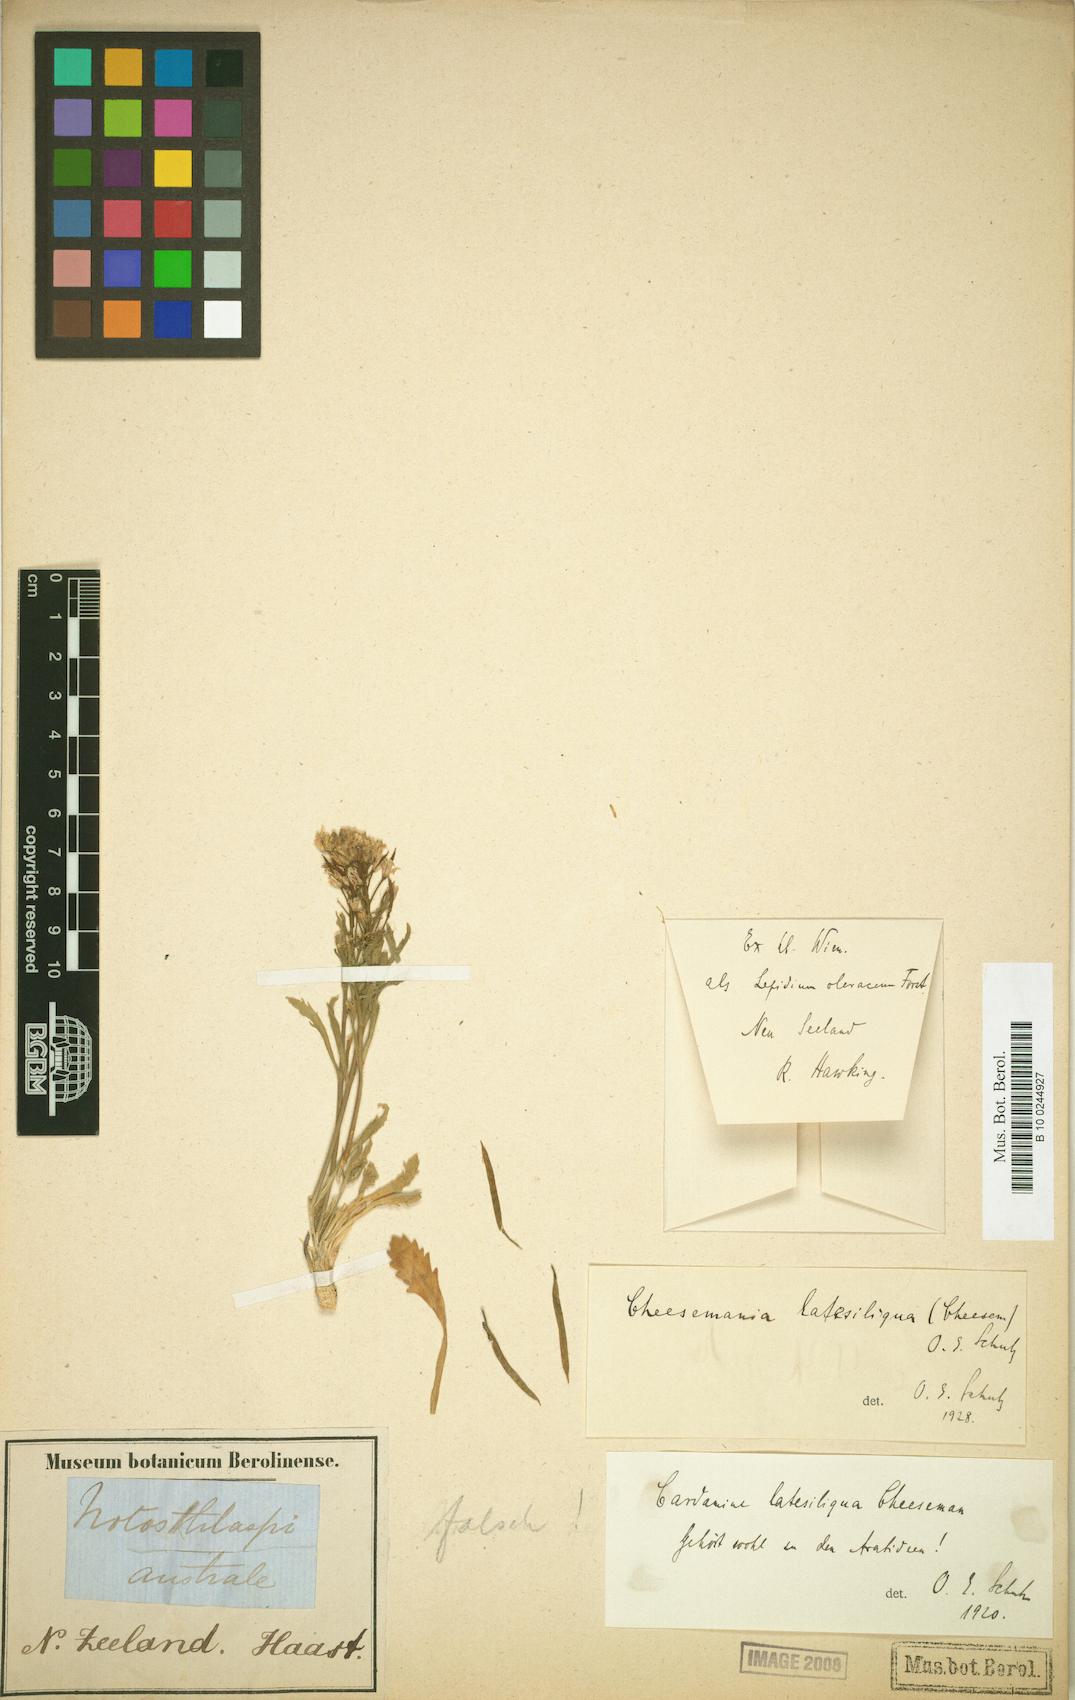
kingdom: Plantae
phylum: Tracheophyta
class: Magnoliopsida
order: Brassicales
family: Brassicaceae
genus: Pachycladon
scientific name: Pachycladon latisiliquum
